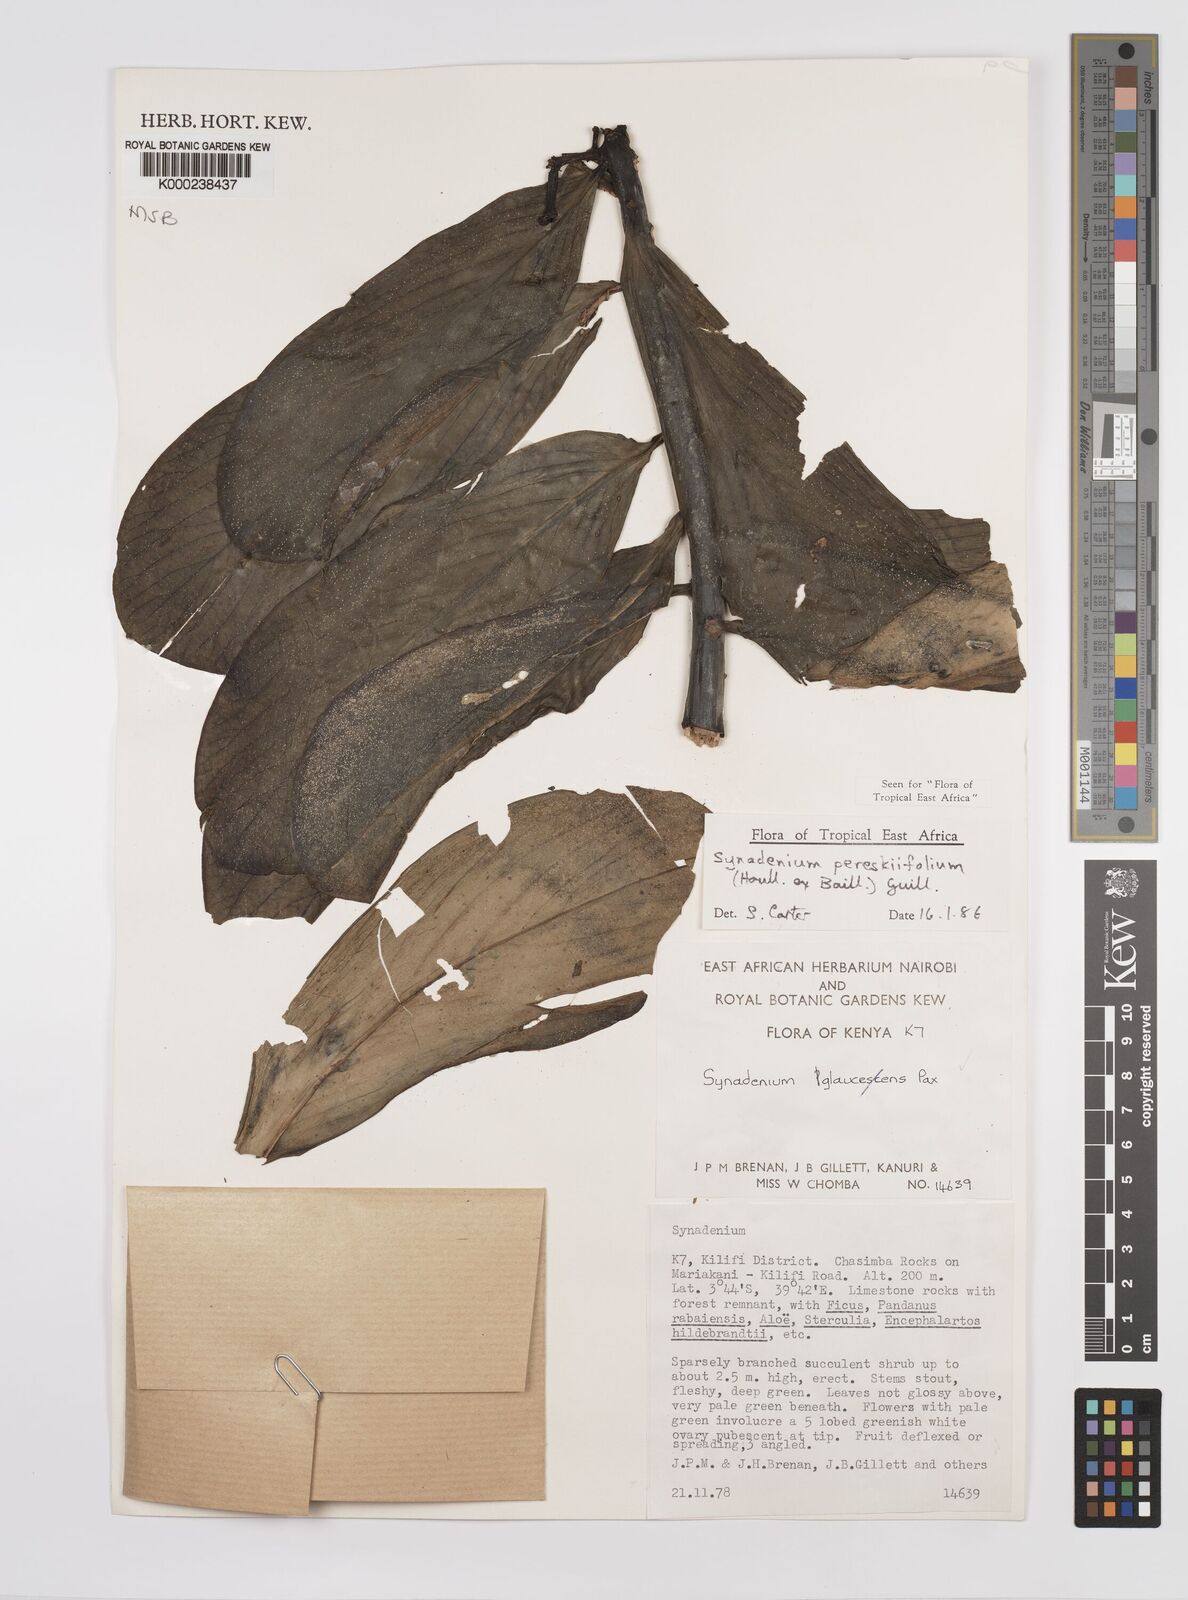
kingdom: Plantae
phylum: Tracheophyta
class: Magnoliopsida
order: Malpighiales
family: Euphorbiaceae
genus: Euphorbia
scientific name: Euphorbia pereskiifolia
